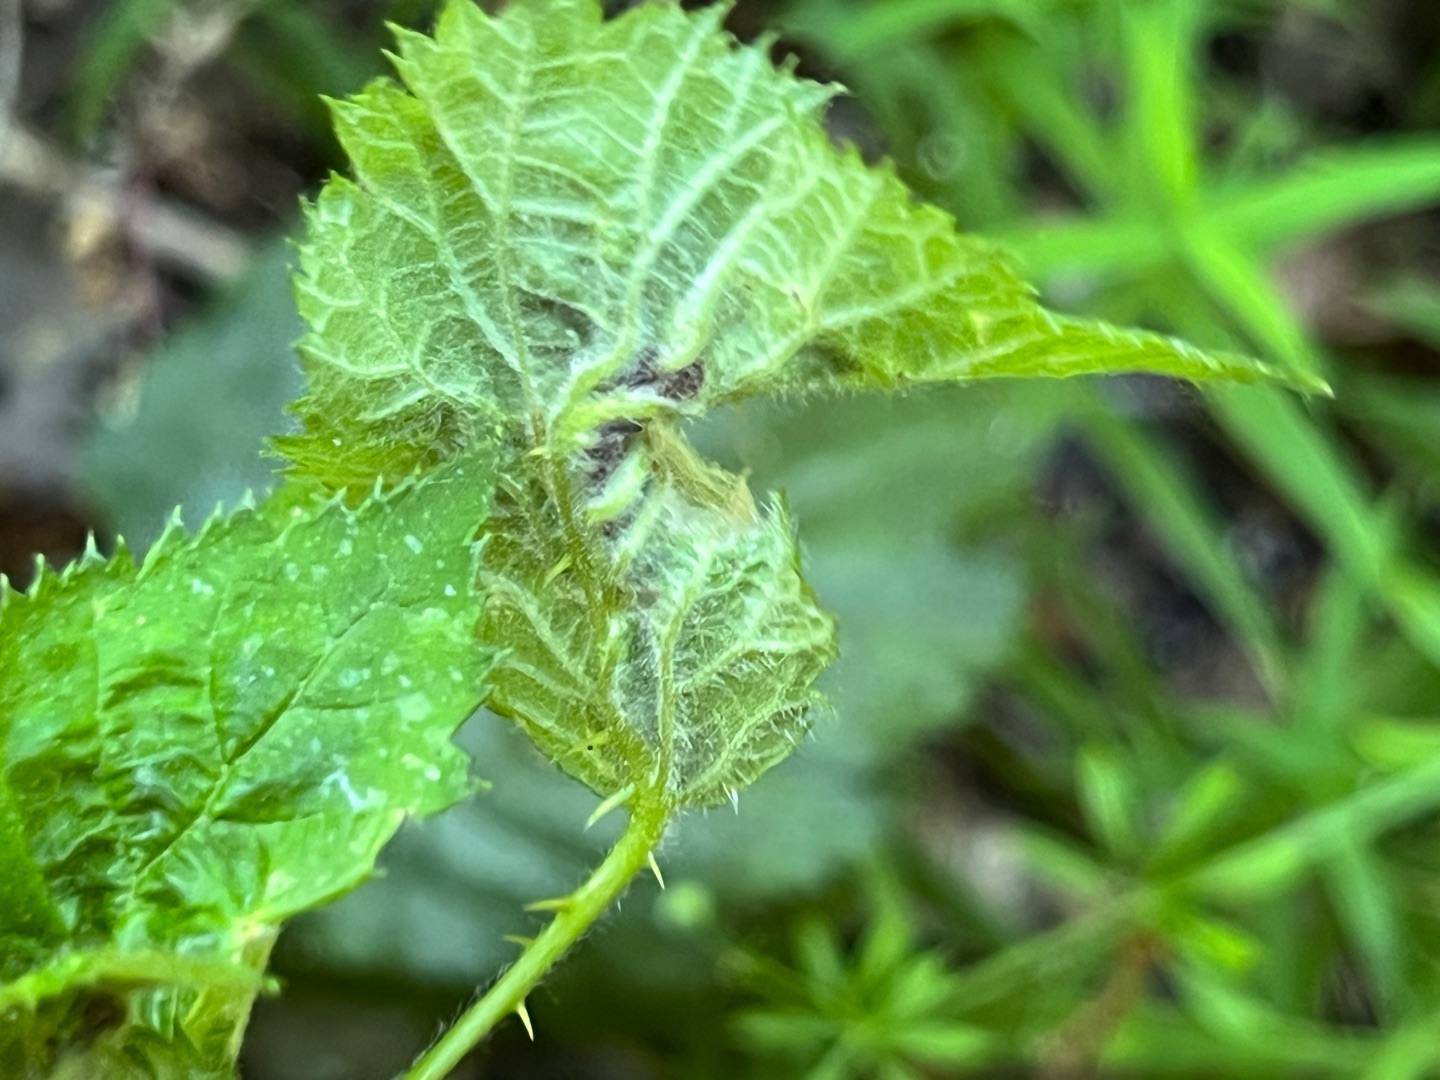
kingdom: Animalia
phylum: Arthropoda
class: Insecta
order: Diptera
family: Cecidomyiidae
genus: Dasineura
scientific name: Dasineura plicatrix
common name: Brombærbladgalmyg
